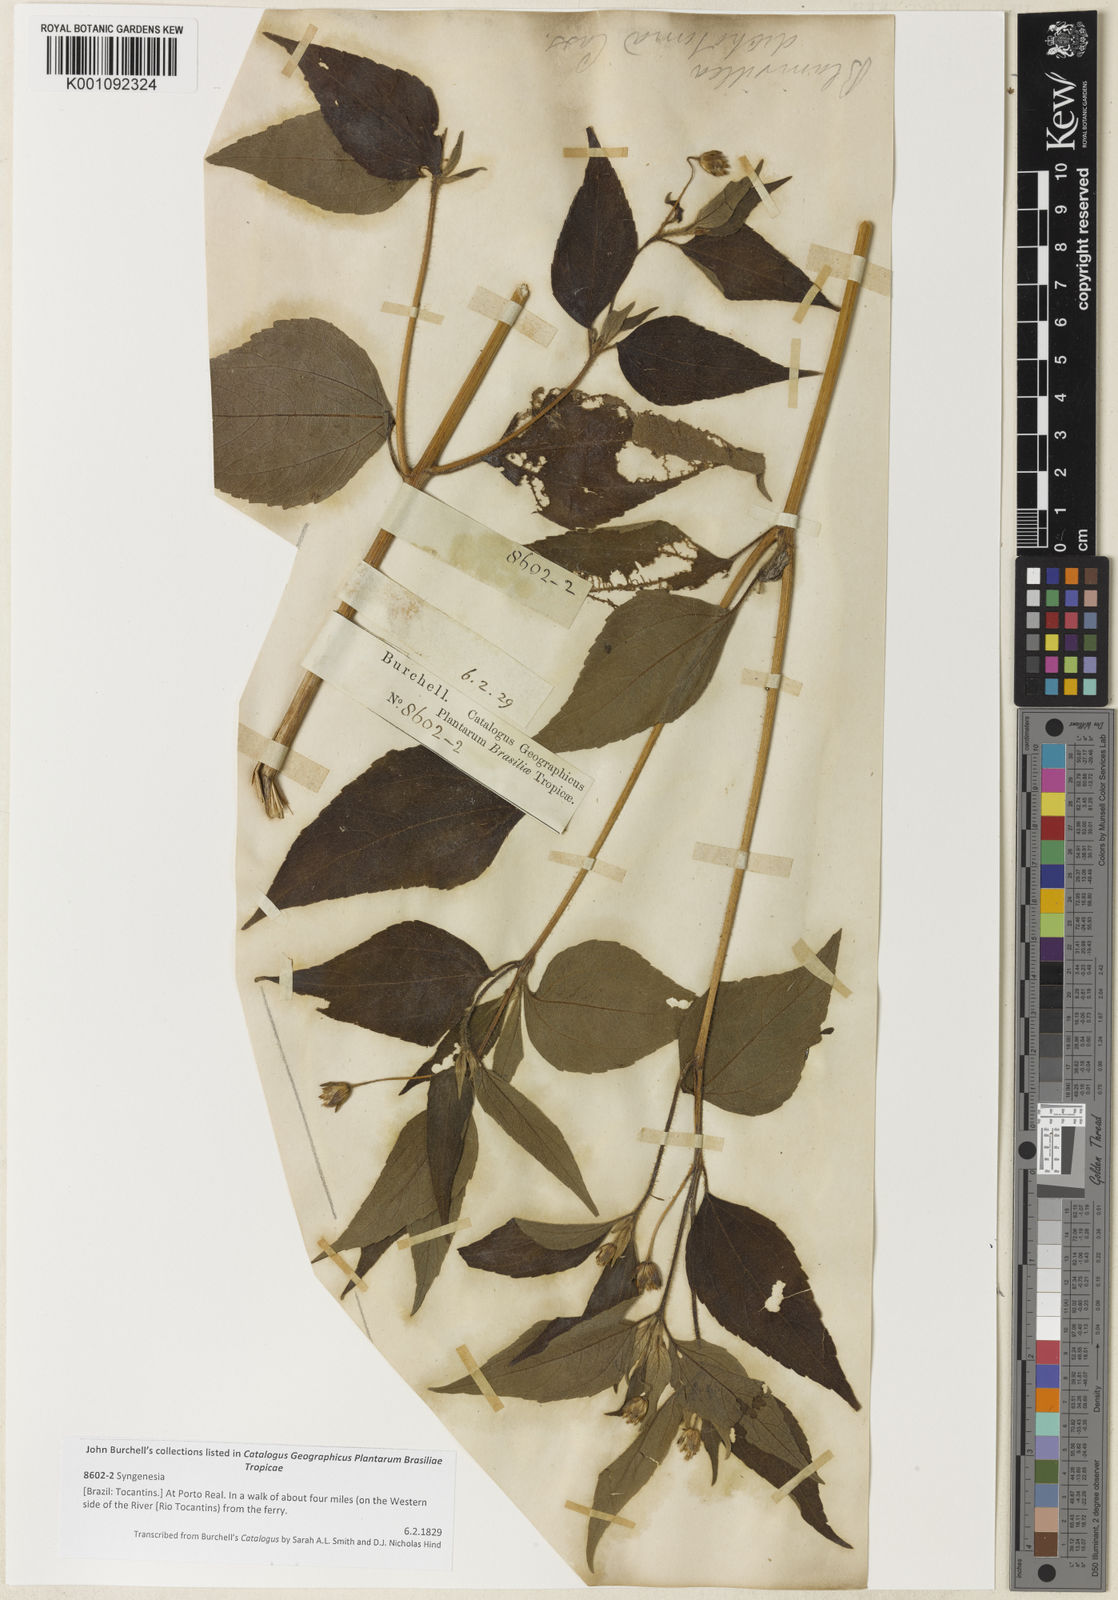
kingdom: Plantae
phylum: Tracheophyta
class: Magnoliopsida
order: Asterales
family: Asteraceae
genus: Blainvillea
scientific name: Blainvillea
